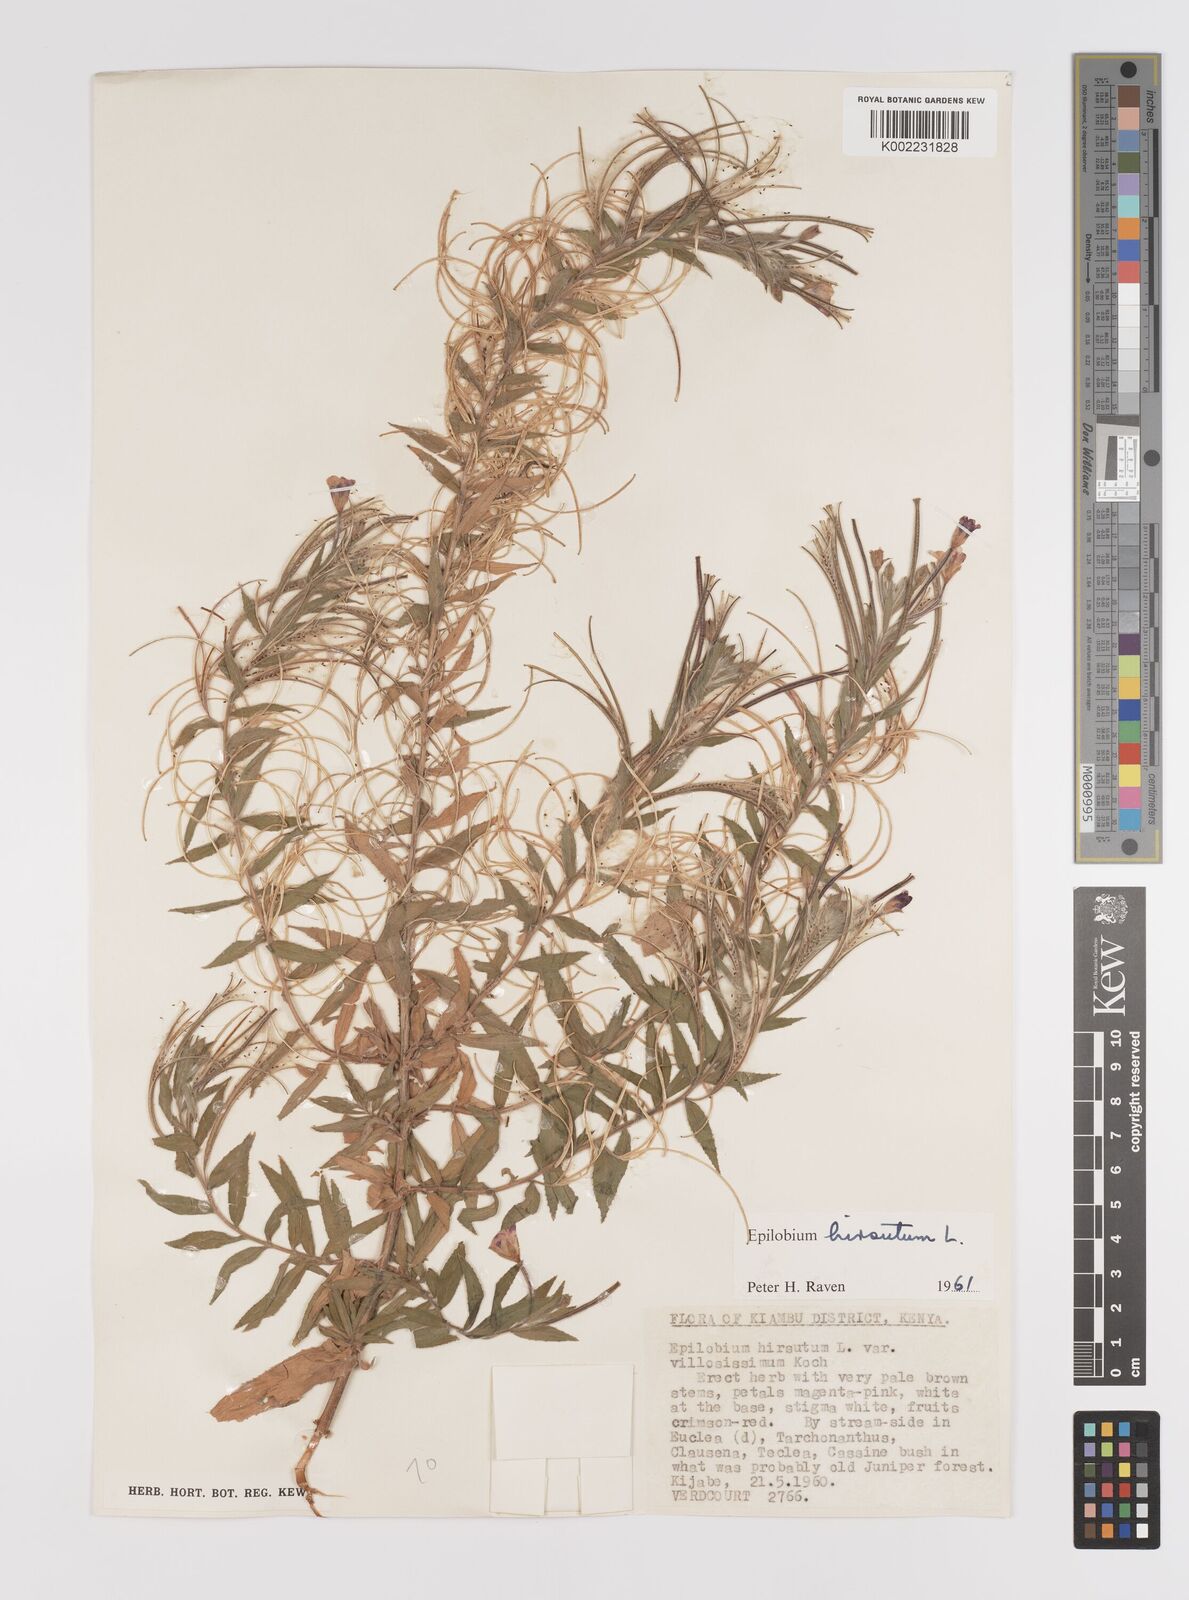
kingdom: Plantae
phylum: Tracheophyta
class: Magnoliopsida
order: Myrtales
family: Onagraceae
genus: Epilobium
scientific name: Epilobium hirsutum
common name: Great willowherb
